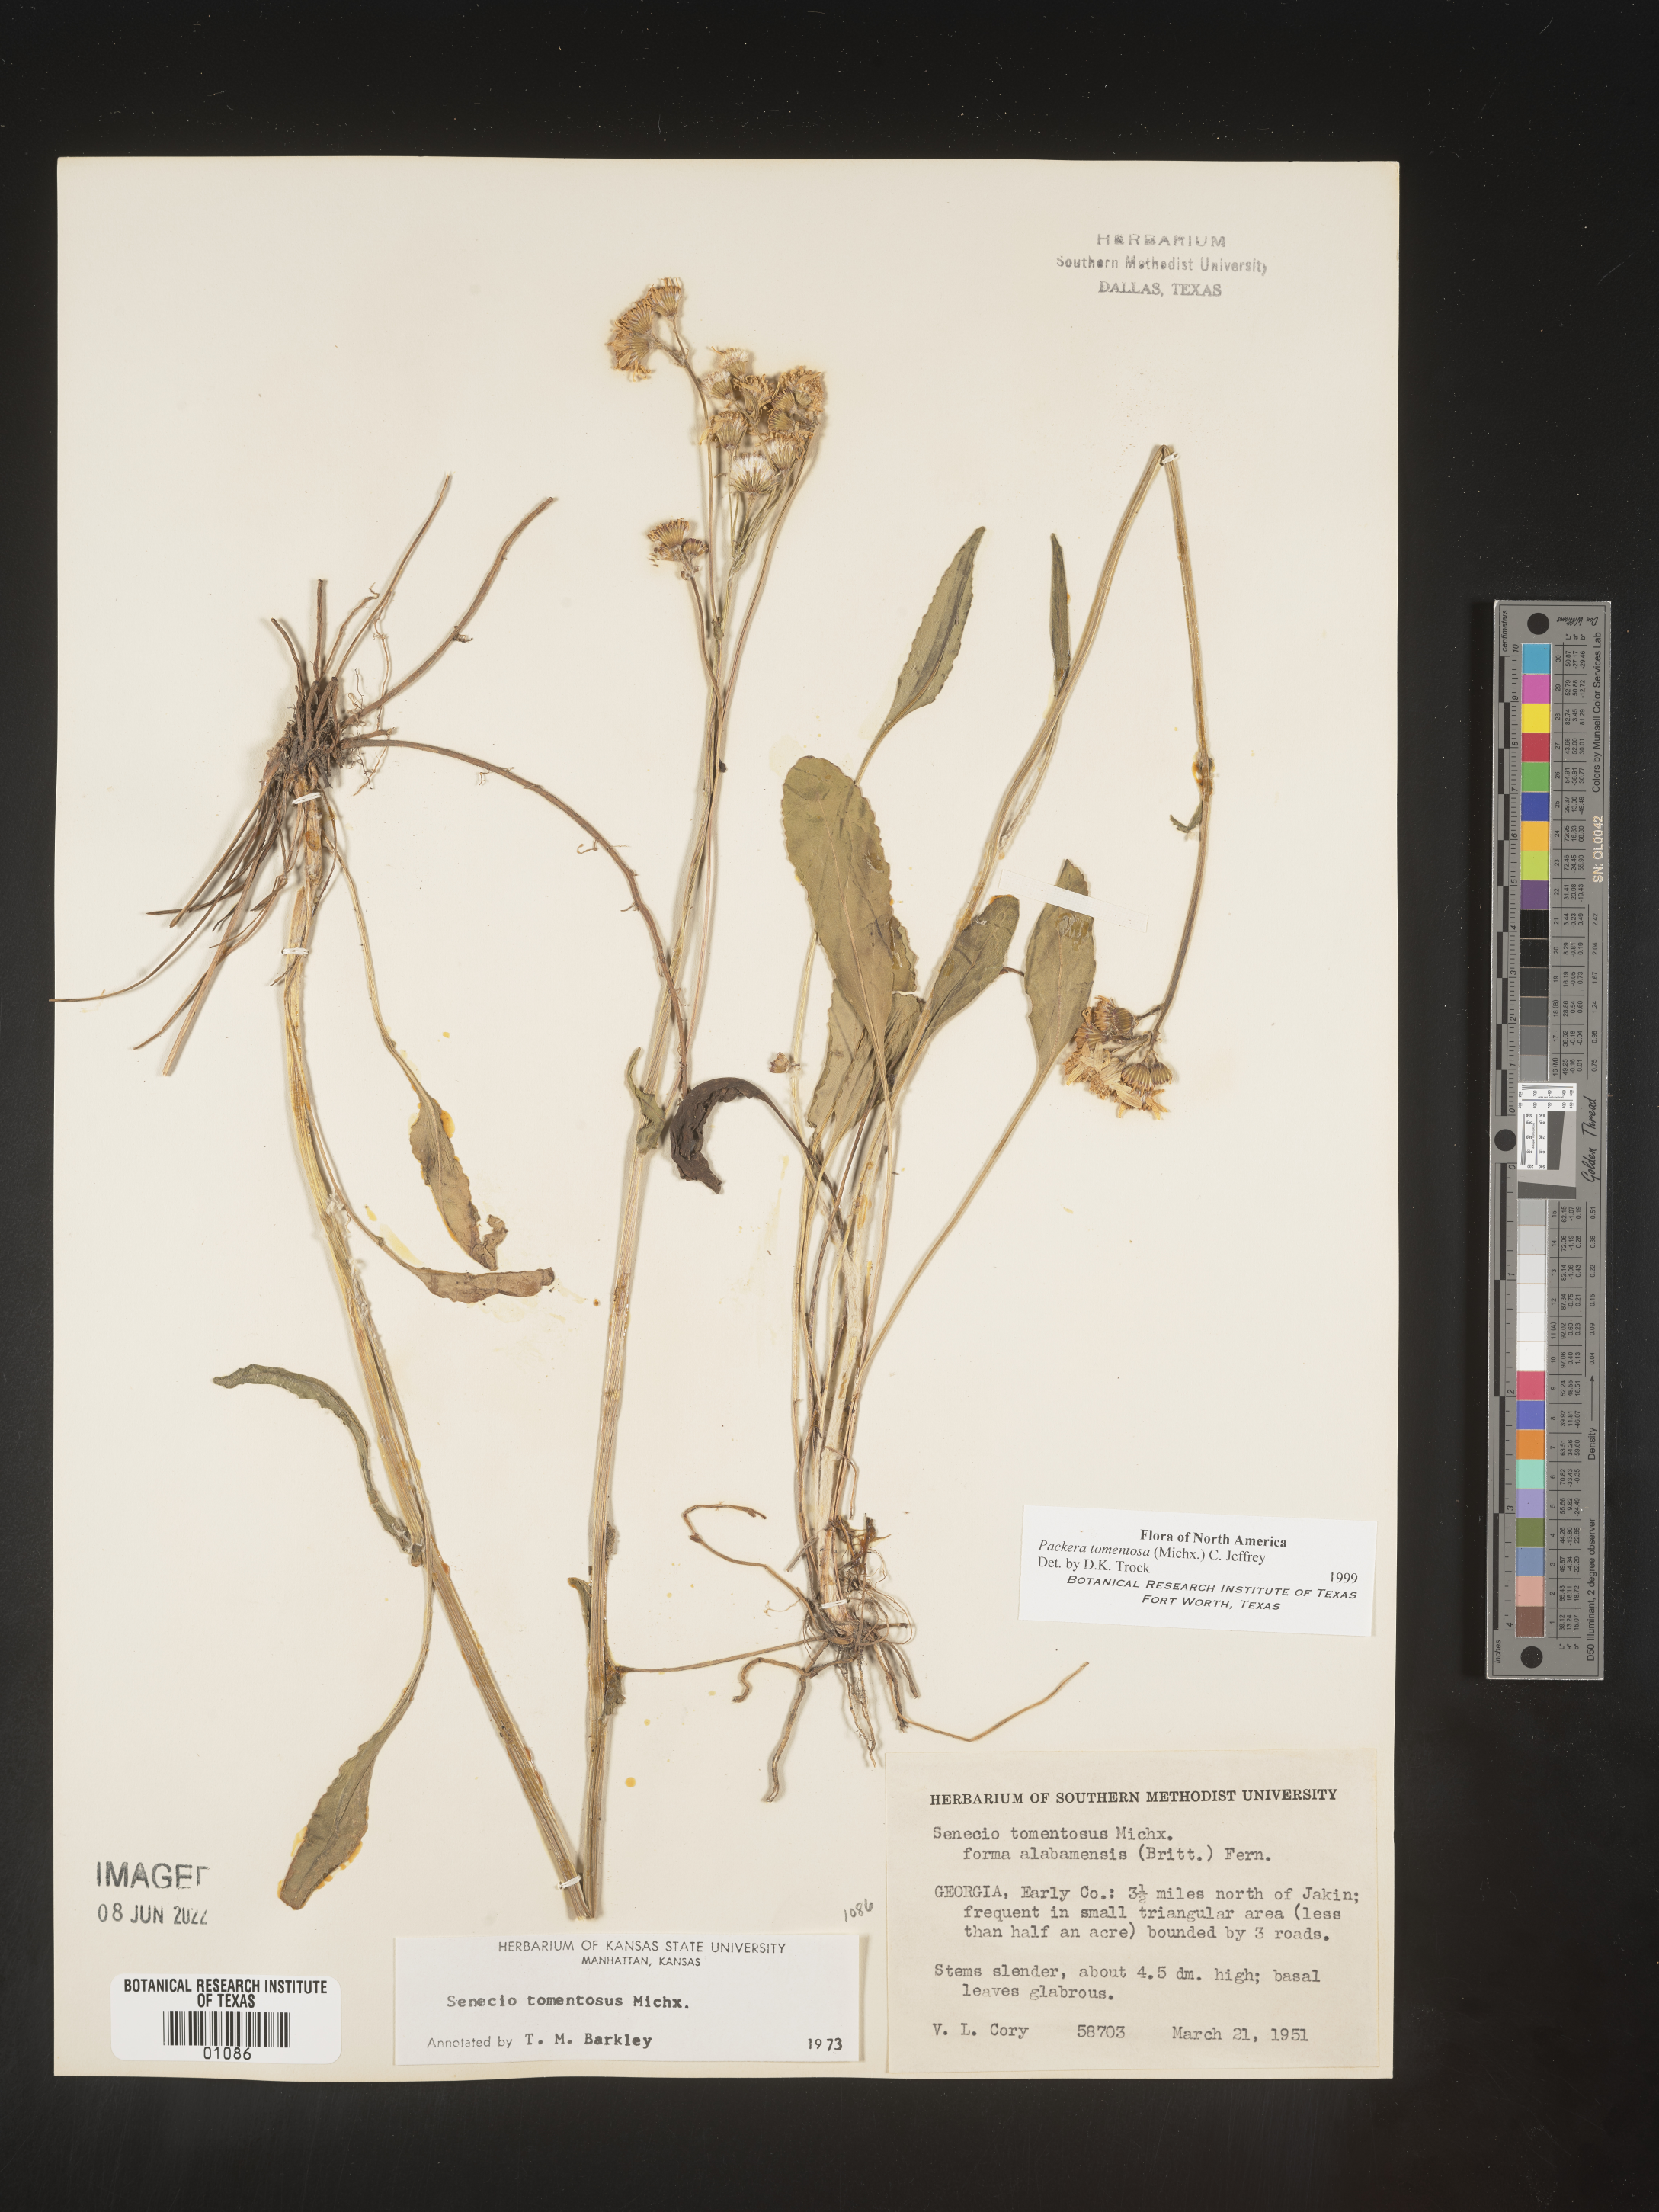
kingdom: Plantae
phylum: Tracheophyta
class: Magnoliopsida
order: Asterales
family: Asteraceae
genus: Packera
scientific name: Packera dubia
